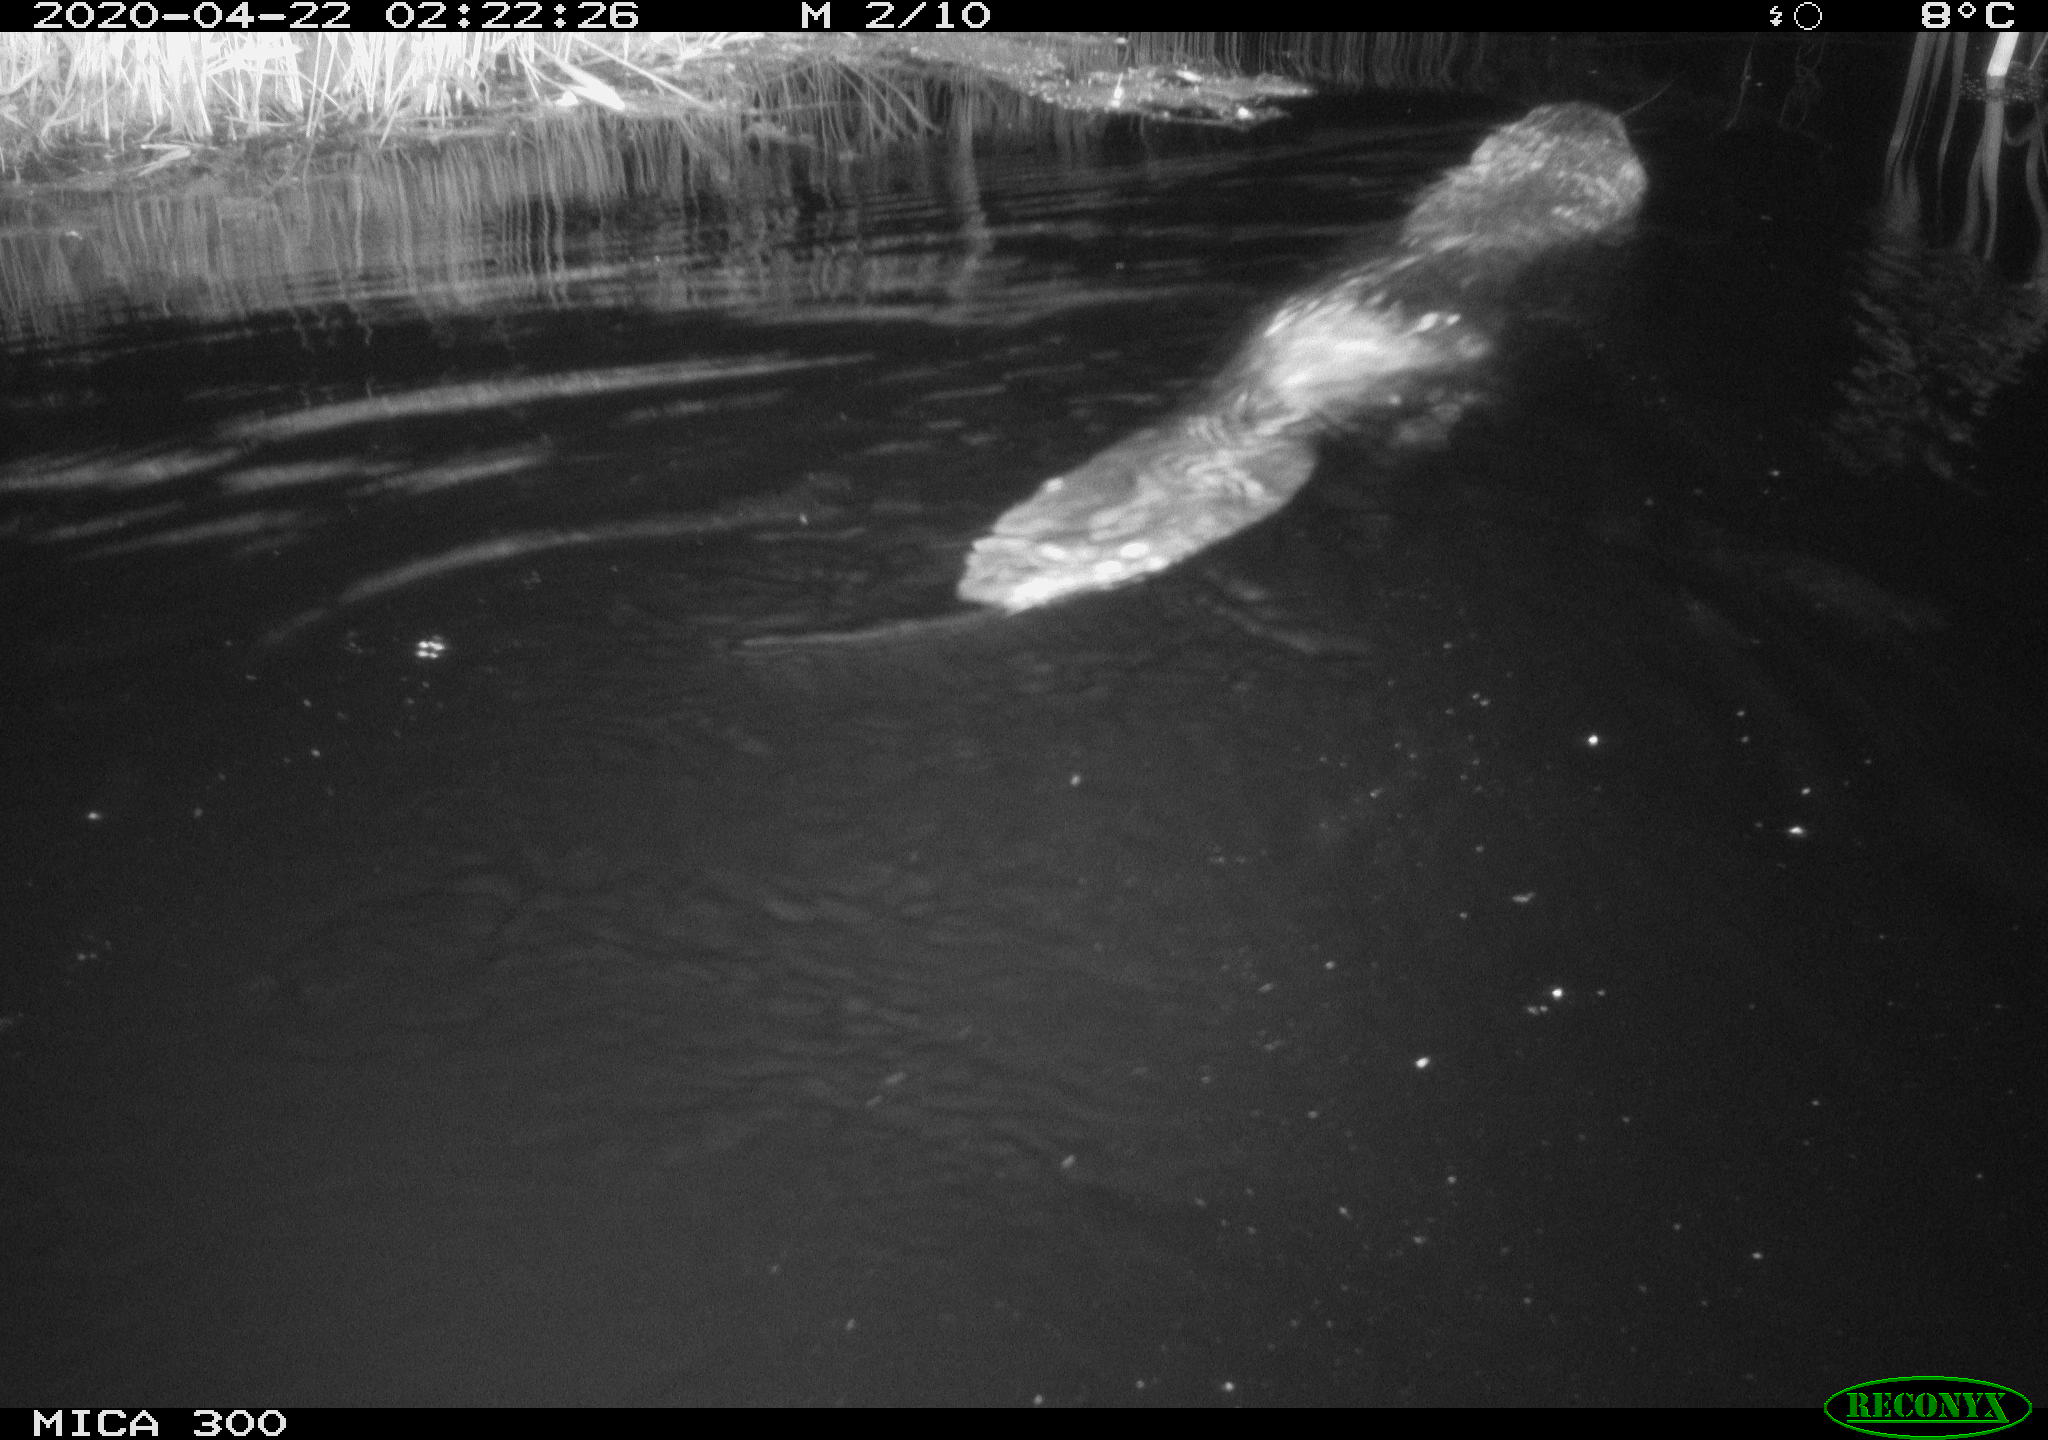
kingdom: Animalia
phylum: Chordata
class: Mammalia
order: Rodentia
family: Castoridae
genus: Castor
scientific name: Castor fiber
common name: Eurasian beaver
